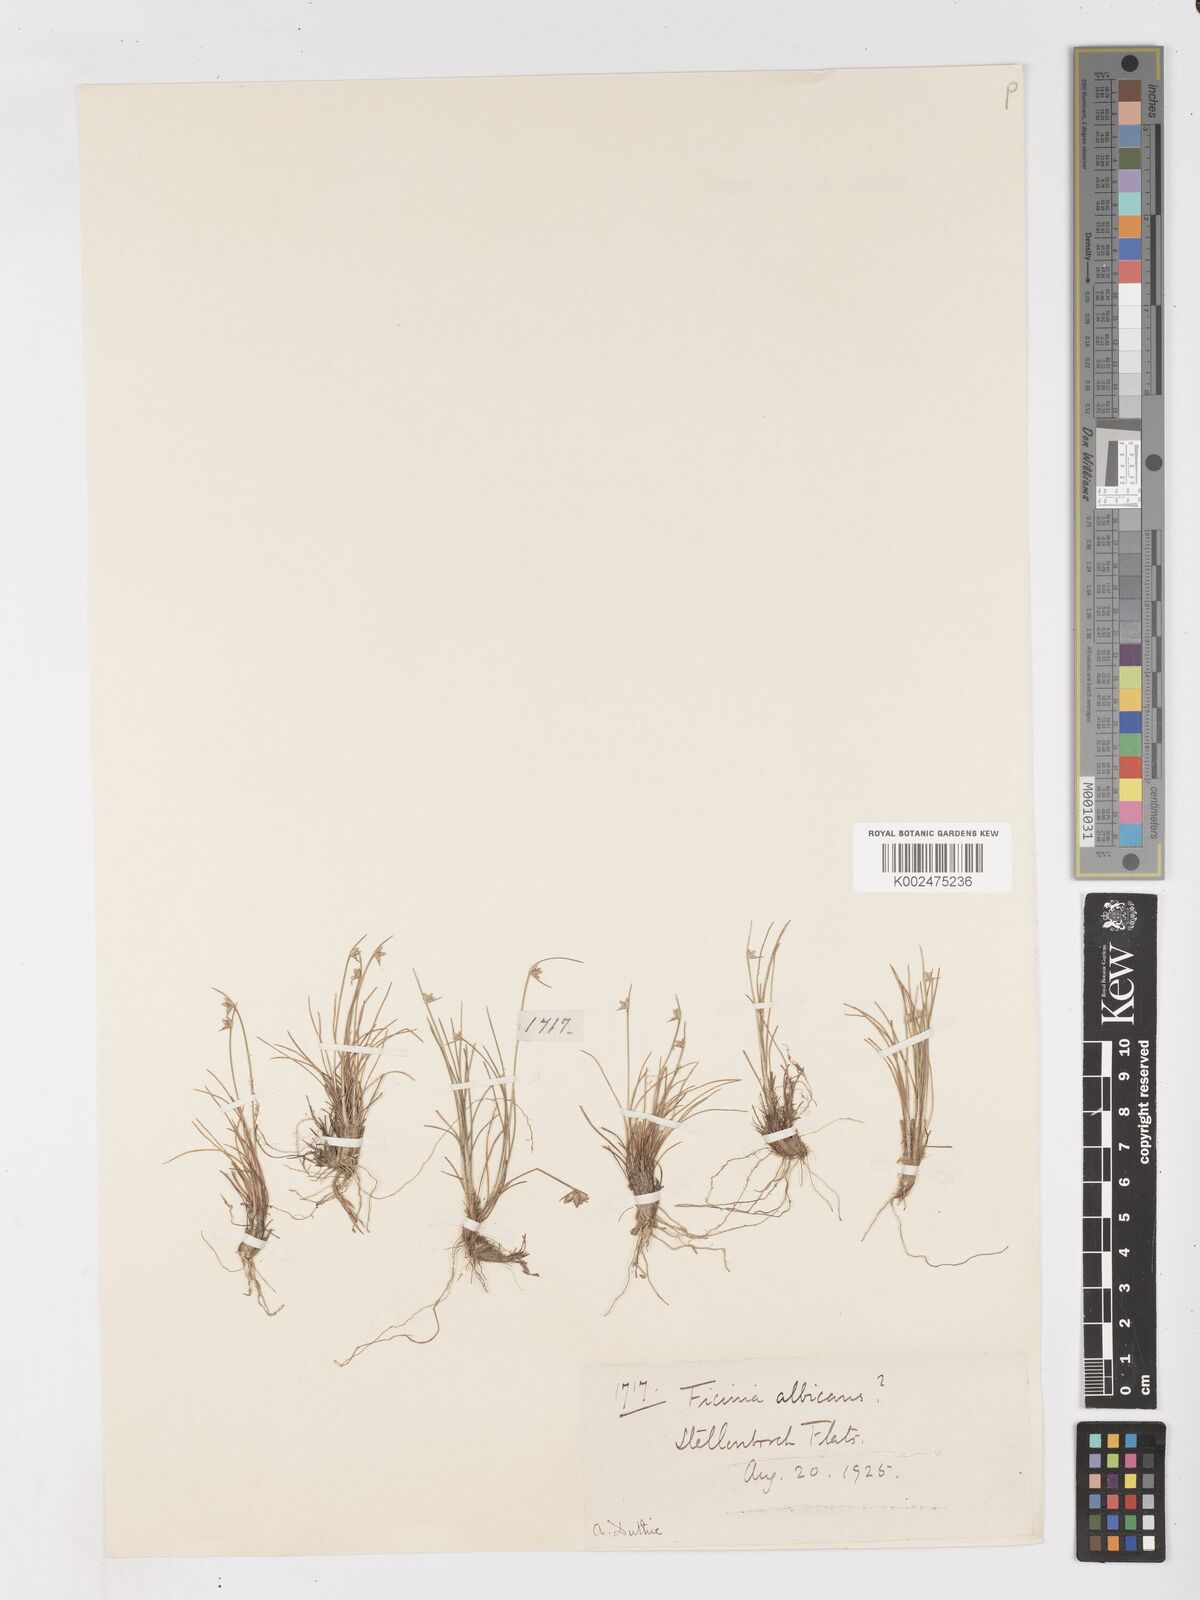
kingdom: Plantae
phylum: Tracheophyta
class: Liliopsida
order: Poales
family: Cyperaceae
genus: Ficinia
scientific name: Ficinia albicans
